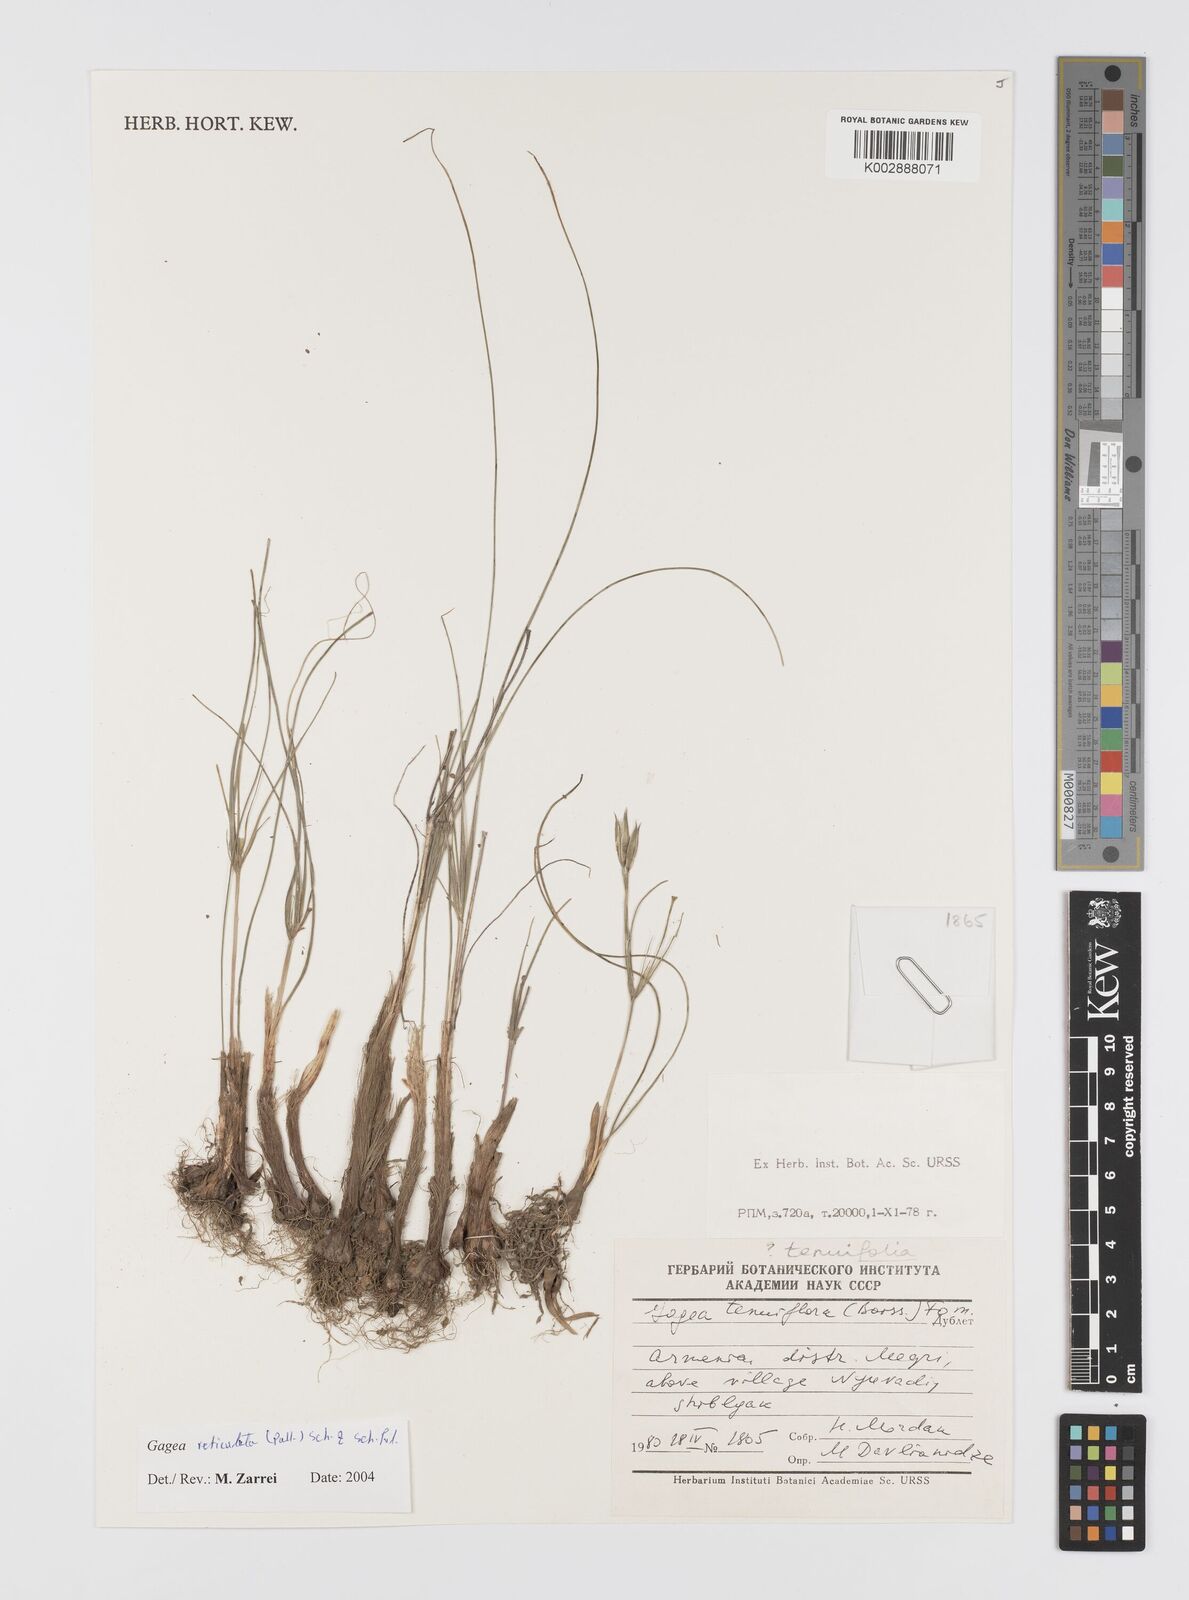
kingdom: Plantae
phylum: Tracheophyta
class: Liliopsida
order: Liliales
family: Liliaceae
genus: Gagea
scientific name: Gagea reticulata
